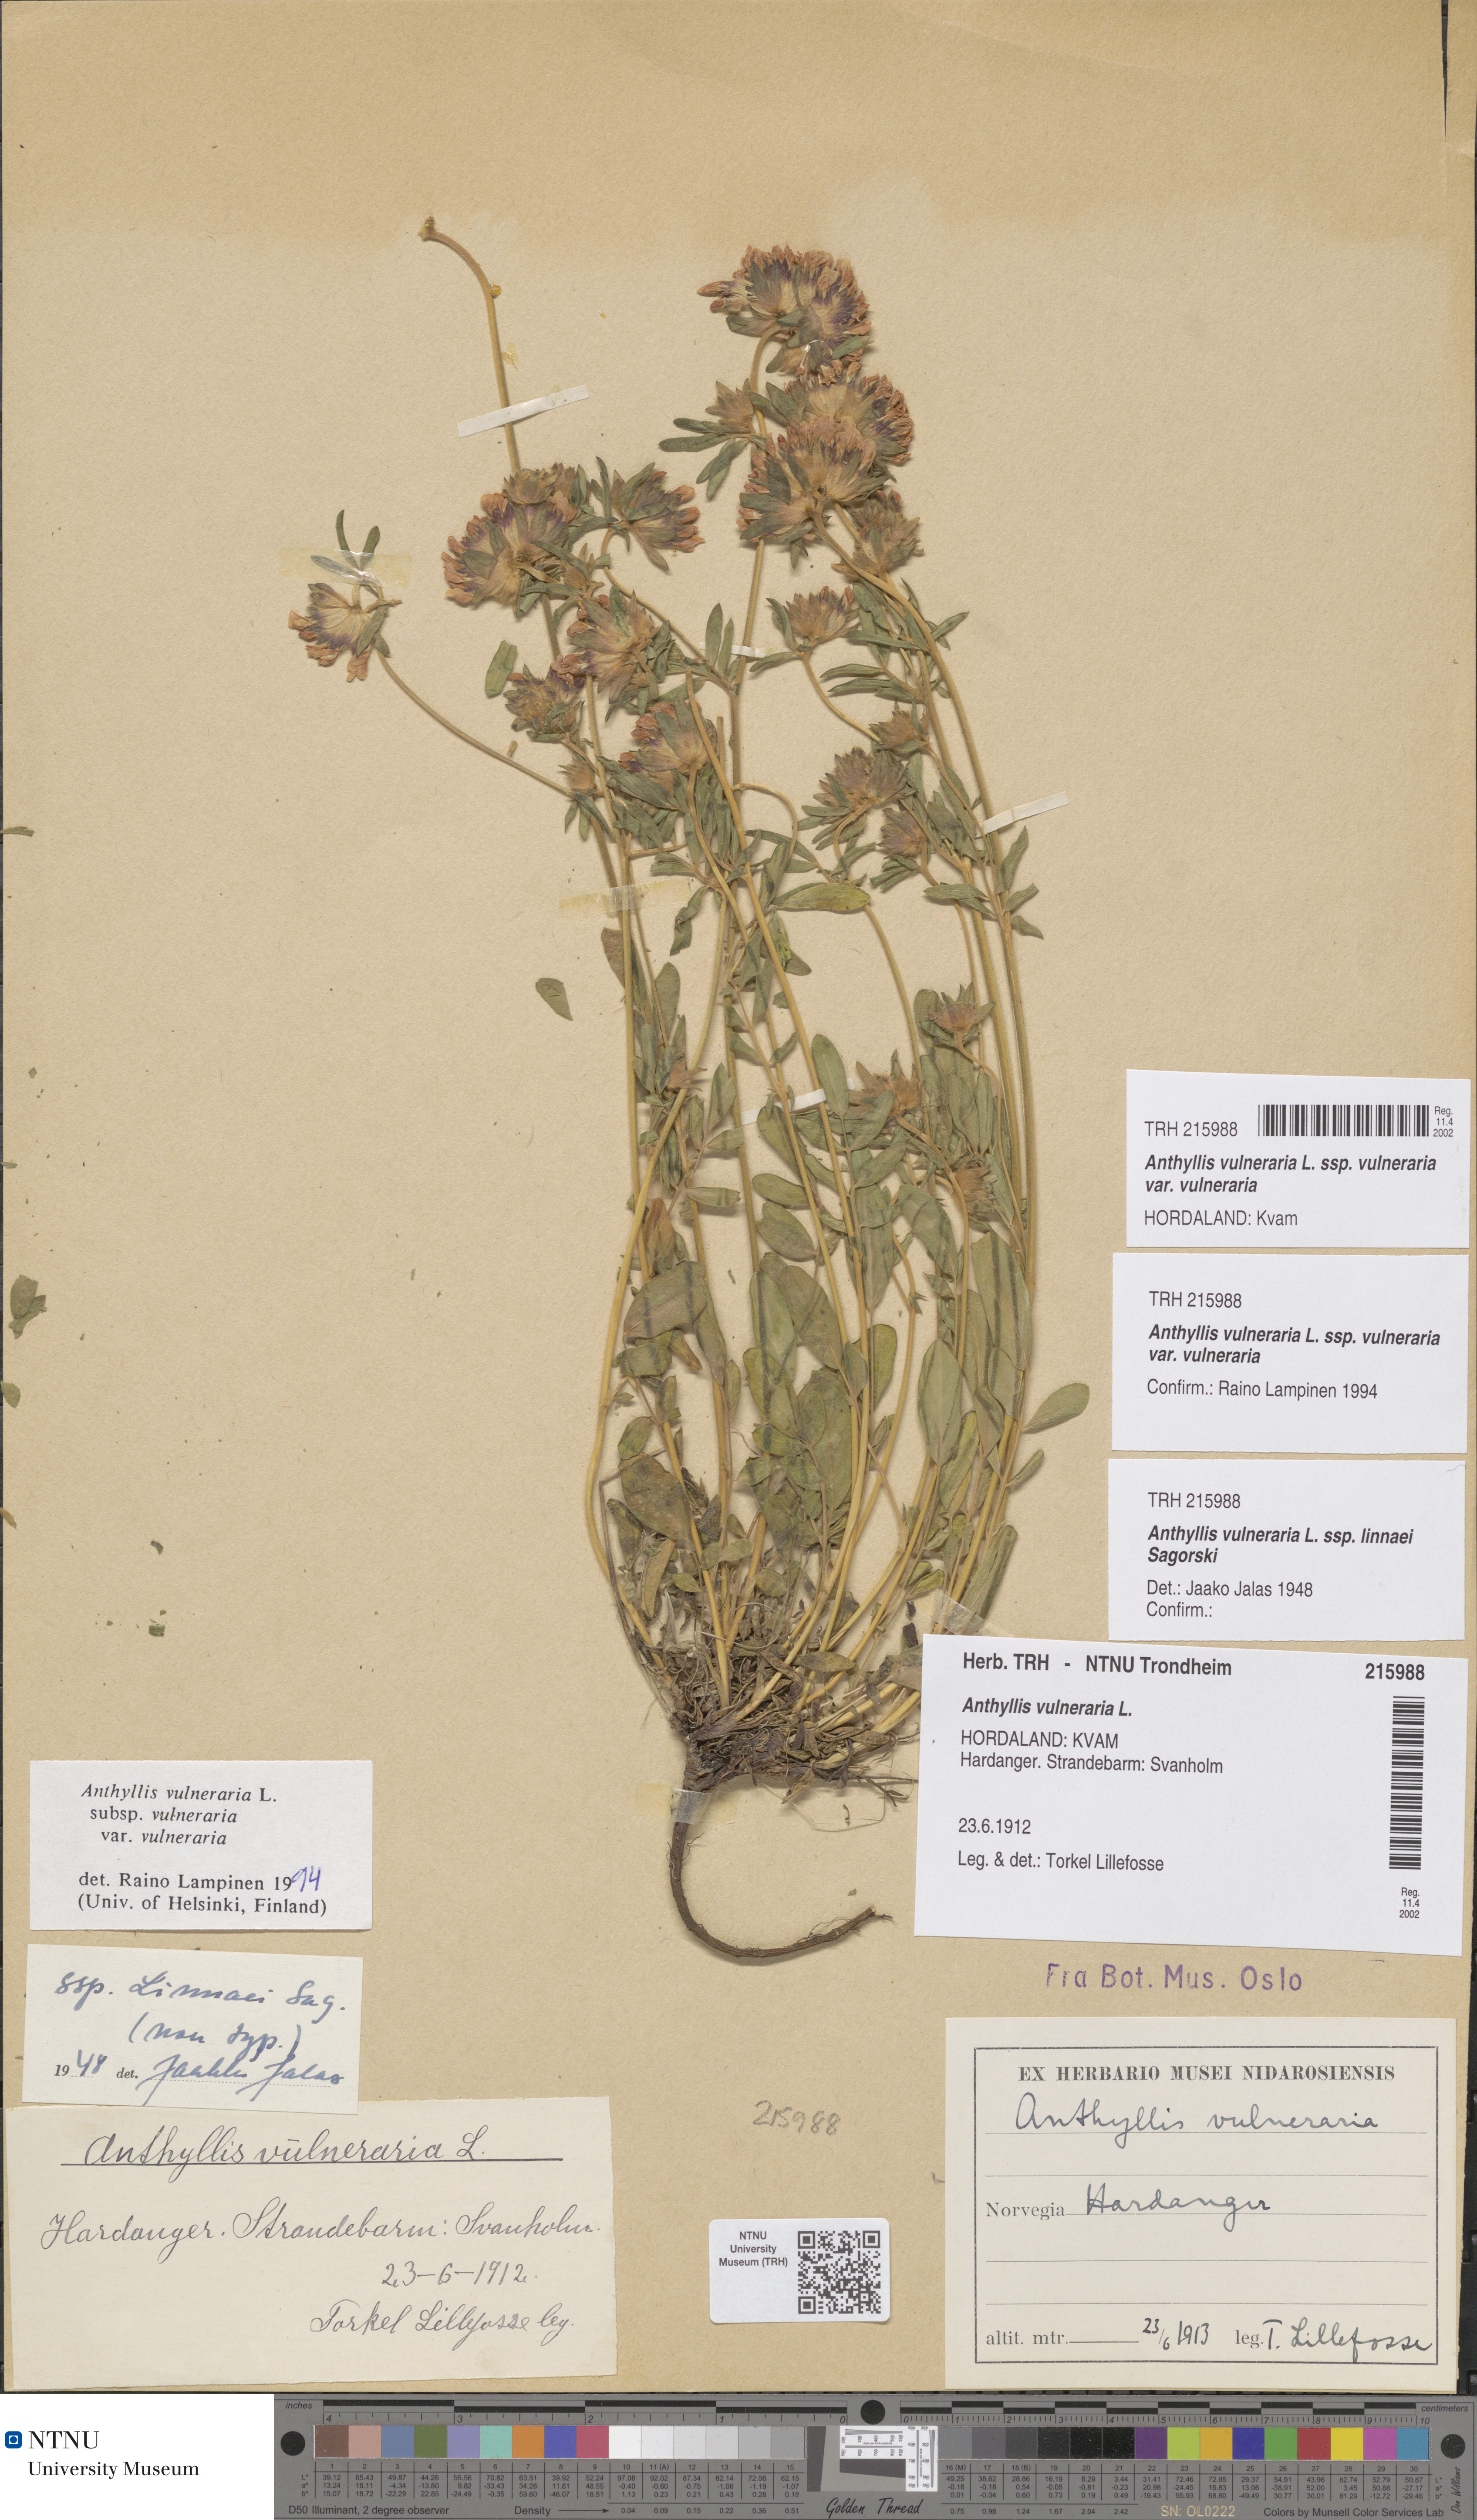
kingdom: Plantae
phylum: Tracheophyta
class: Magnoliopsida
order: Fabales
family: Fabaceae
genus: Anthyllis
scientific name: Anthyllis vulneraria
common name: Kidney vetch
